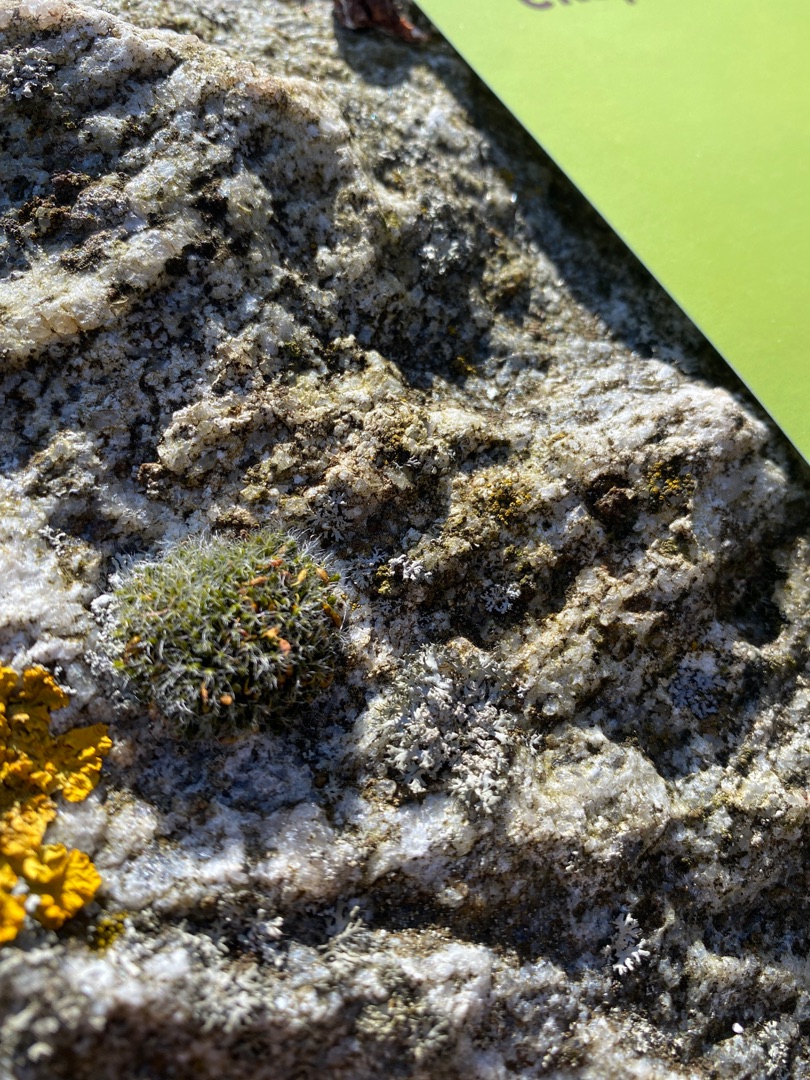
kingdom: Plantae
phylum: Bryophyta
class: Bryopsida
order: Grimmiales
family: Grimmiaceae
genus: Grimmia
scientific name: Grimmia pulvinata
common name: Pude-gråmos
